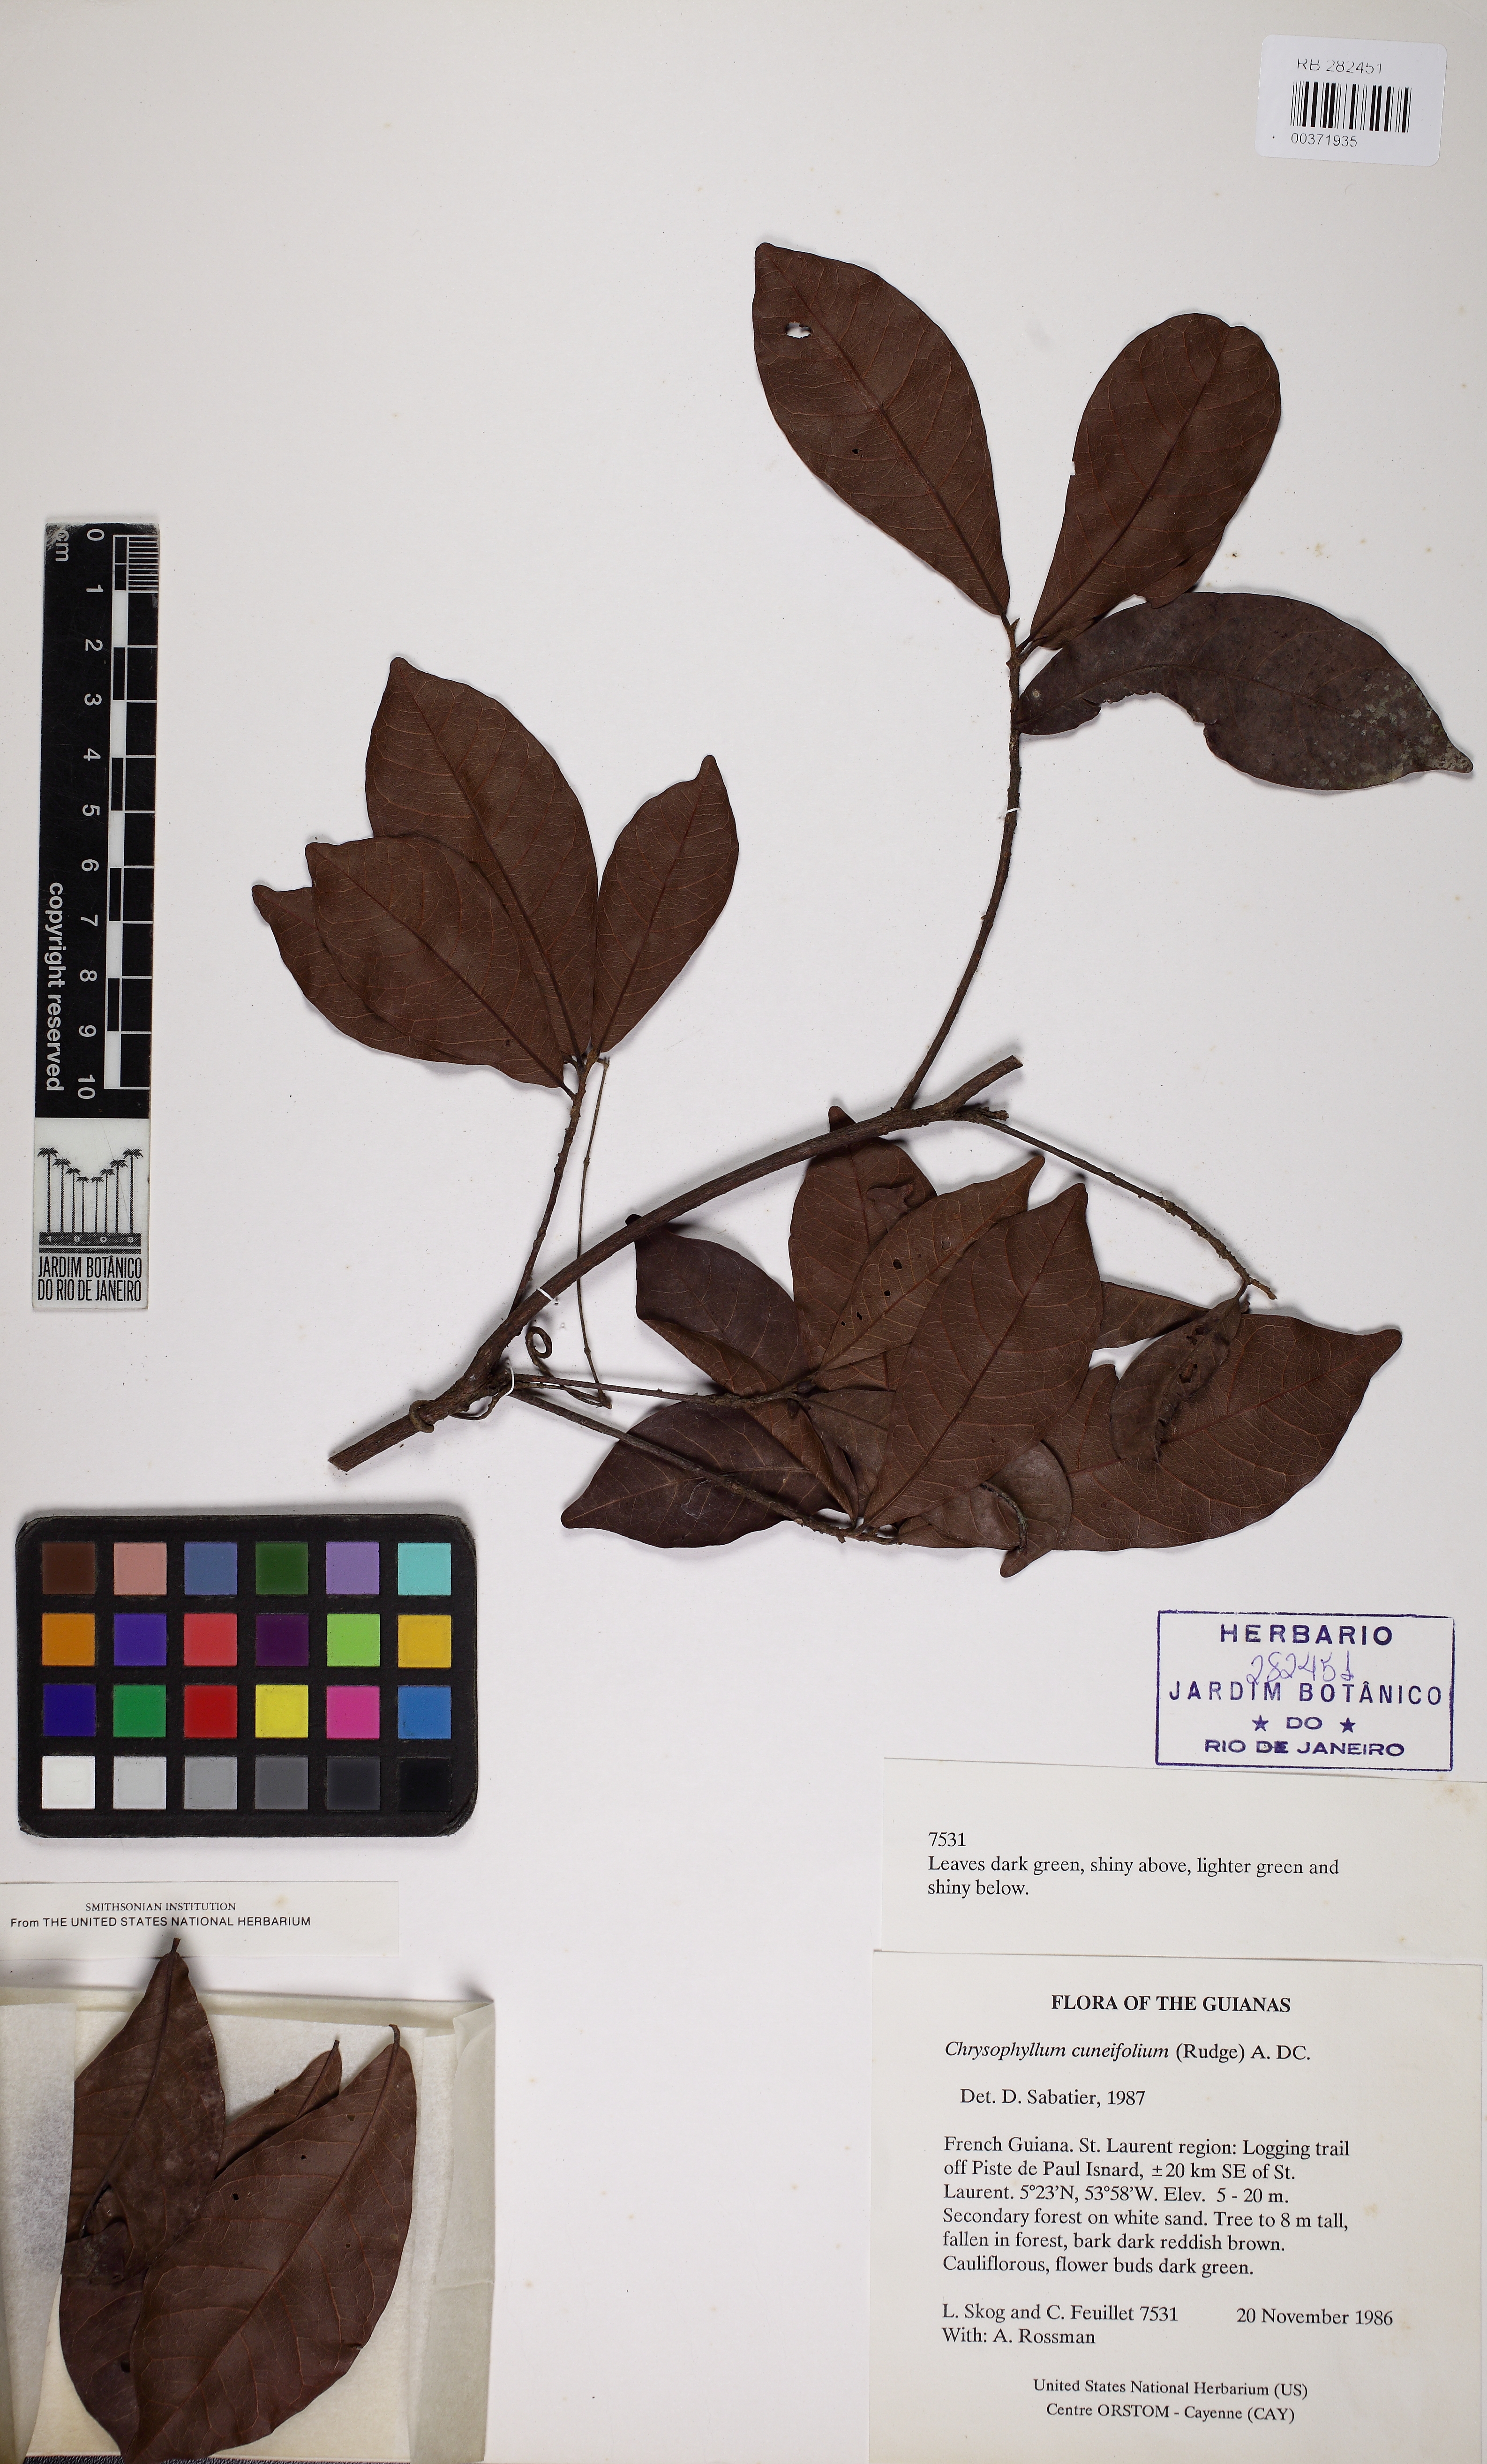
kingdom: Plantae
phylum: Tracheophyta
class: Magnoliopsida
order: Ericales
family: Sapotaceae
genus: Chrysophyllum
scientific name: Chrysophyllum cuneifolium
